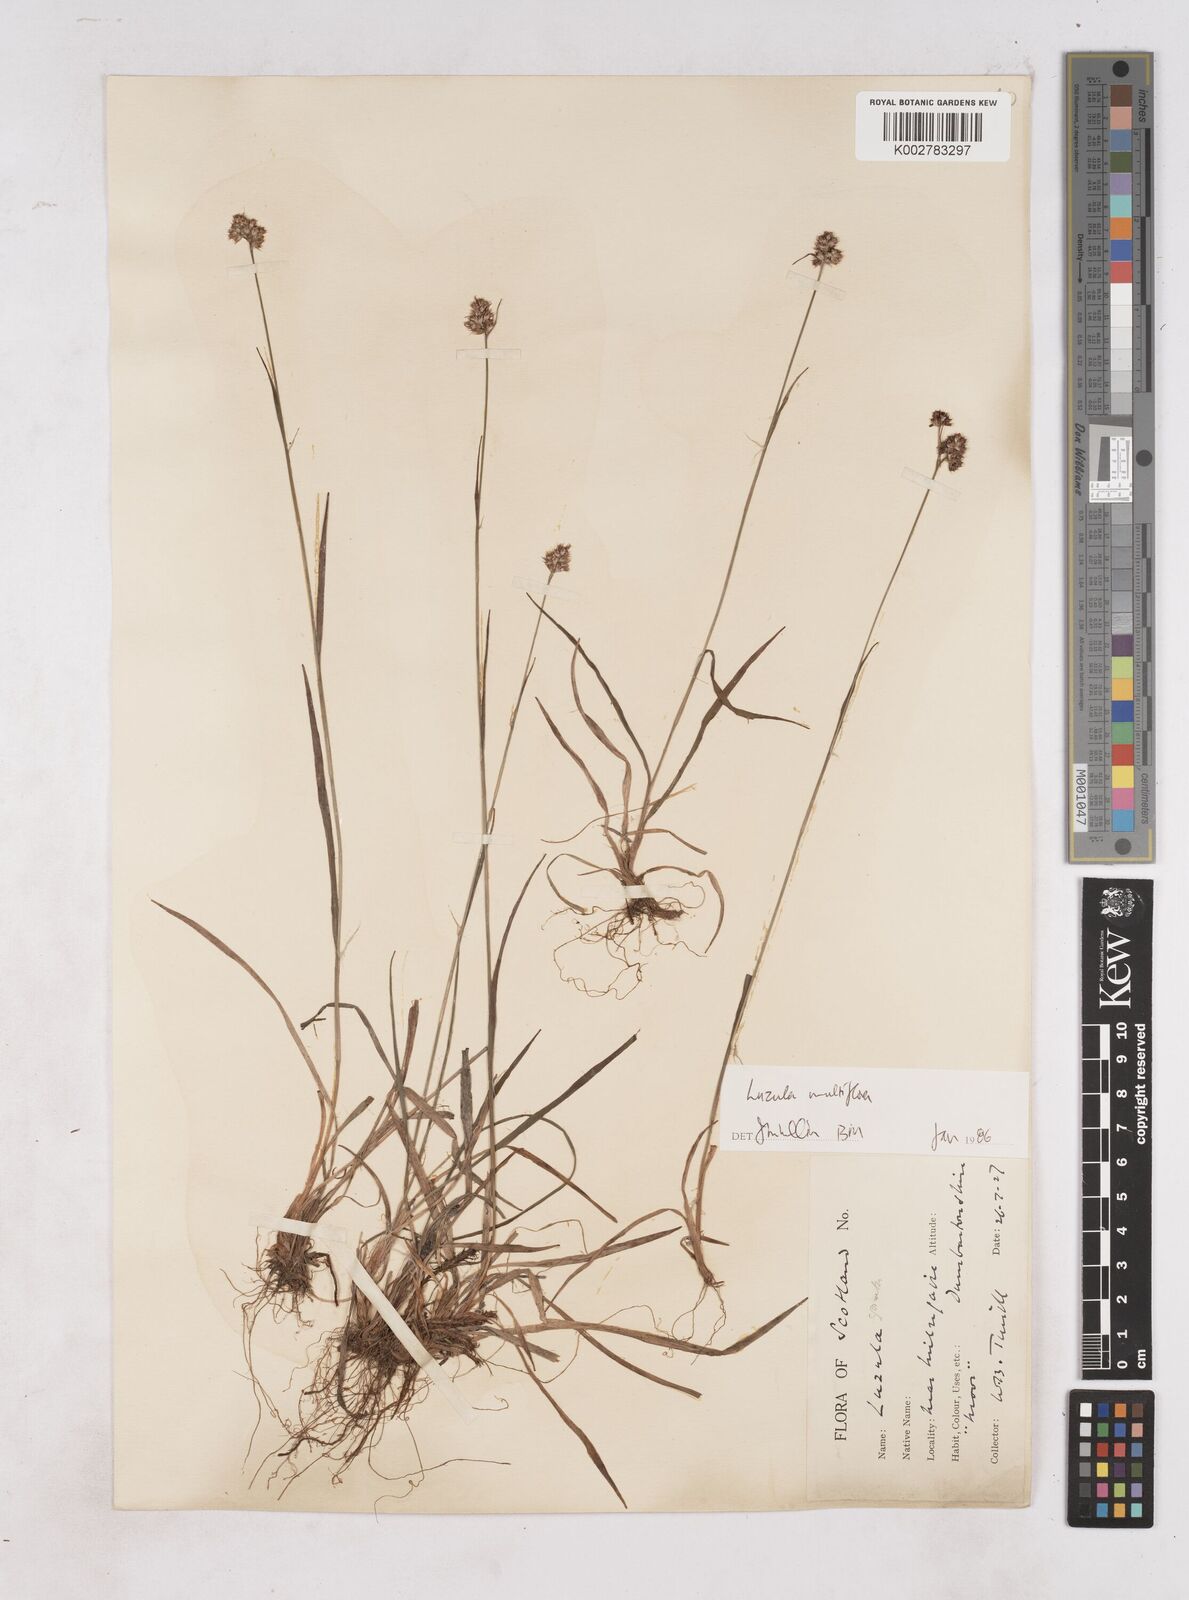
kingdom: Plantae
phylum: Tracheophyta
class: Liliopsida
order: Poales
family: Juncaceae
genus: Luzula
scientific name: Luzula multiflora
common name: Heath wood-rush
